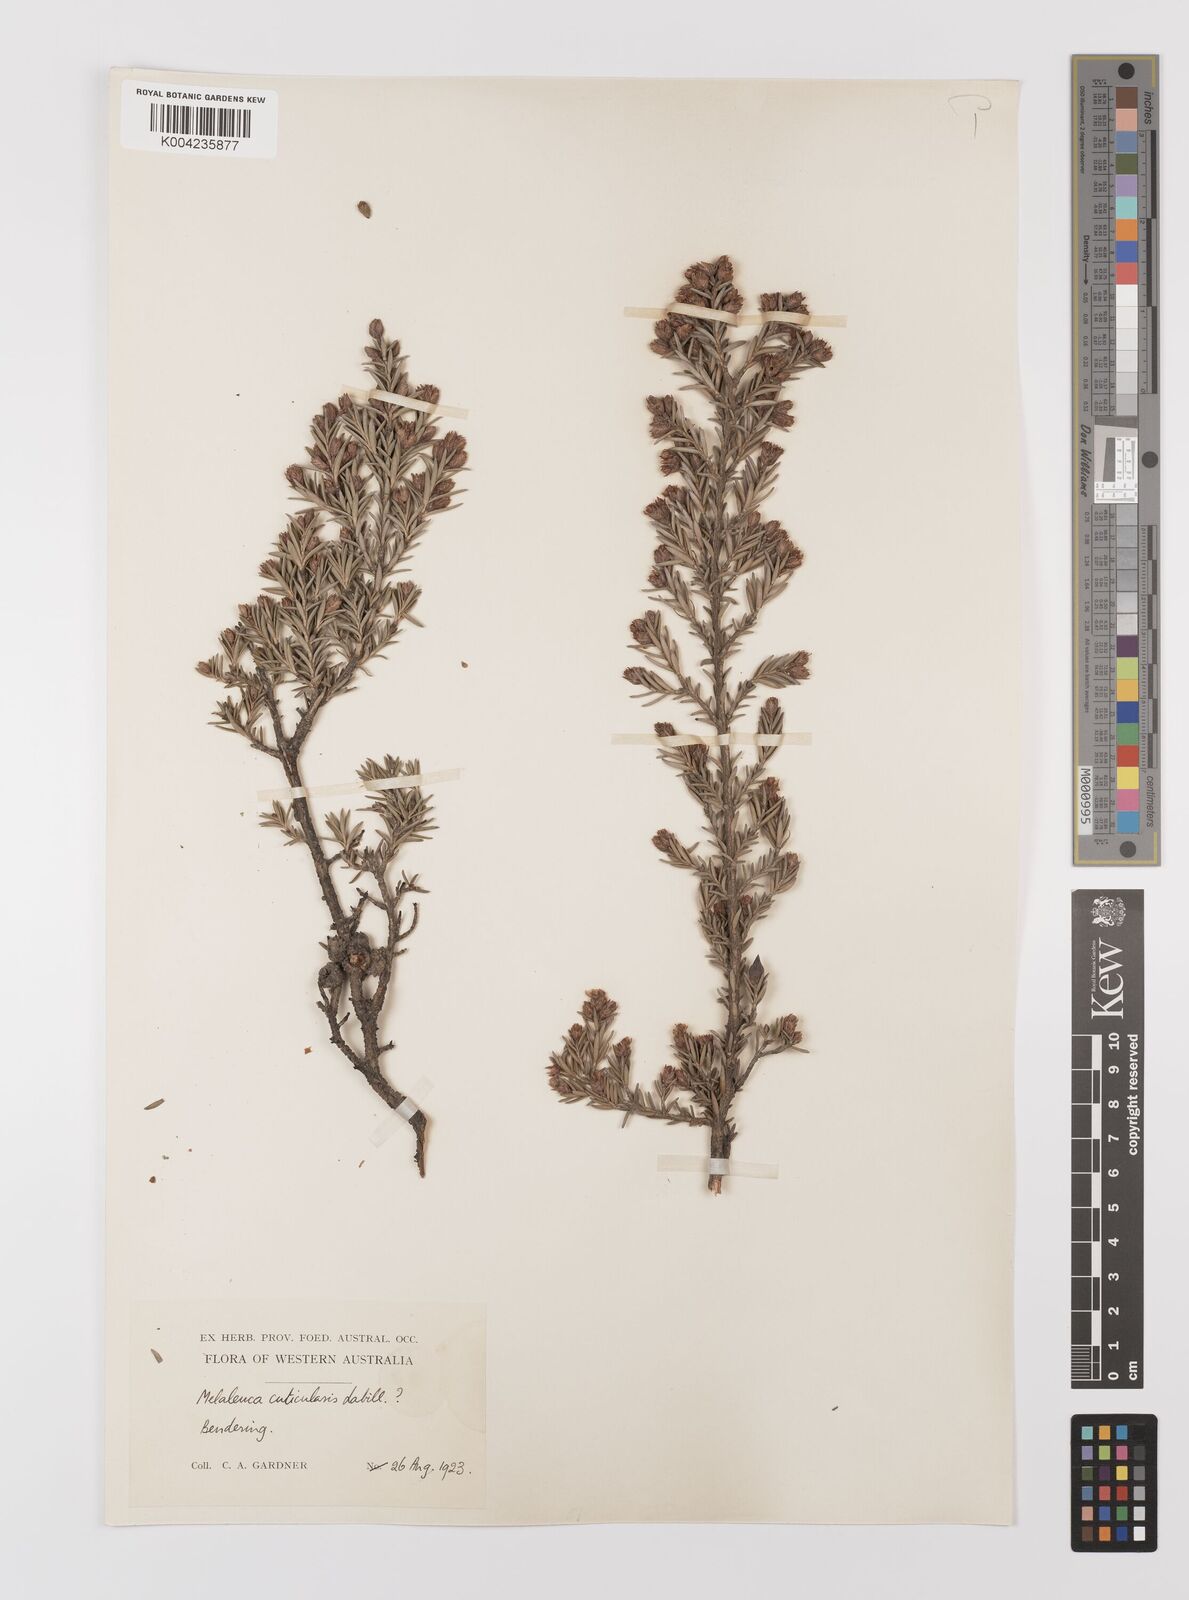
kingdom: Plantae
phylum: Tracheophyta
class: Magnoliopsida
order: Myrtales
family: Myrtaceae
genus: Melaleuca
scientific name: Melaleuca cuticularis
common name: Saltwater paperbark
